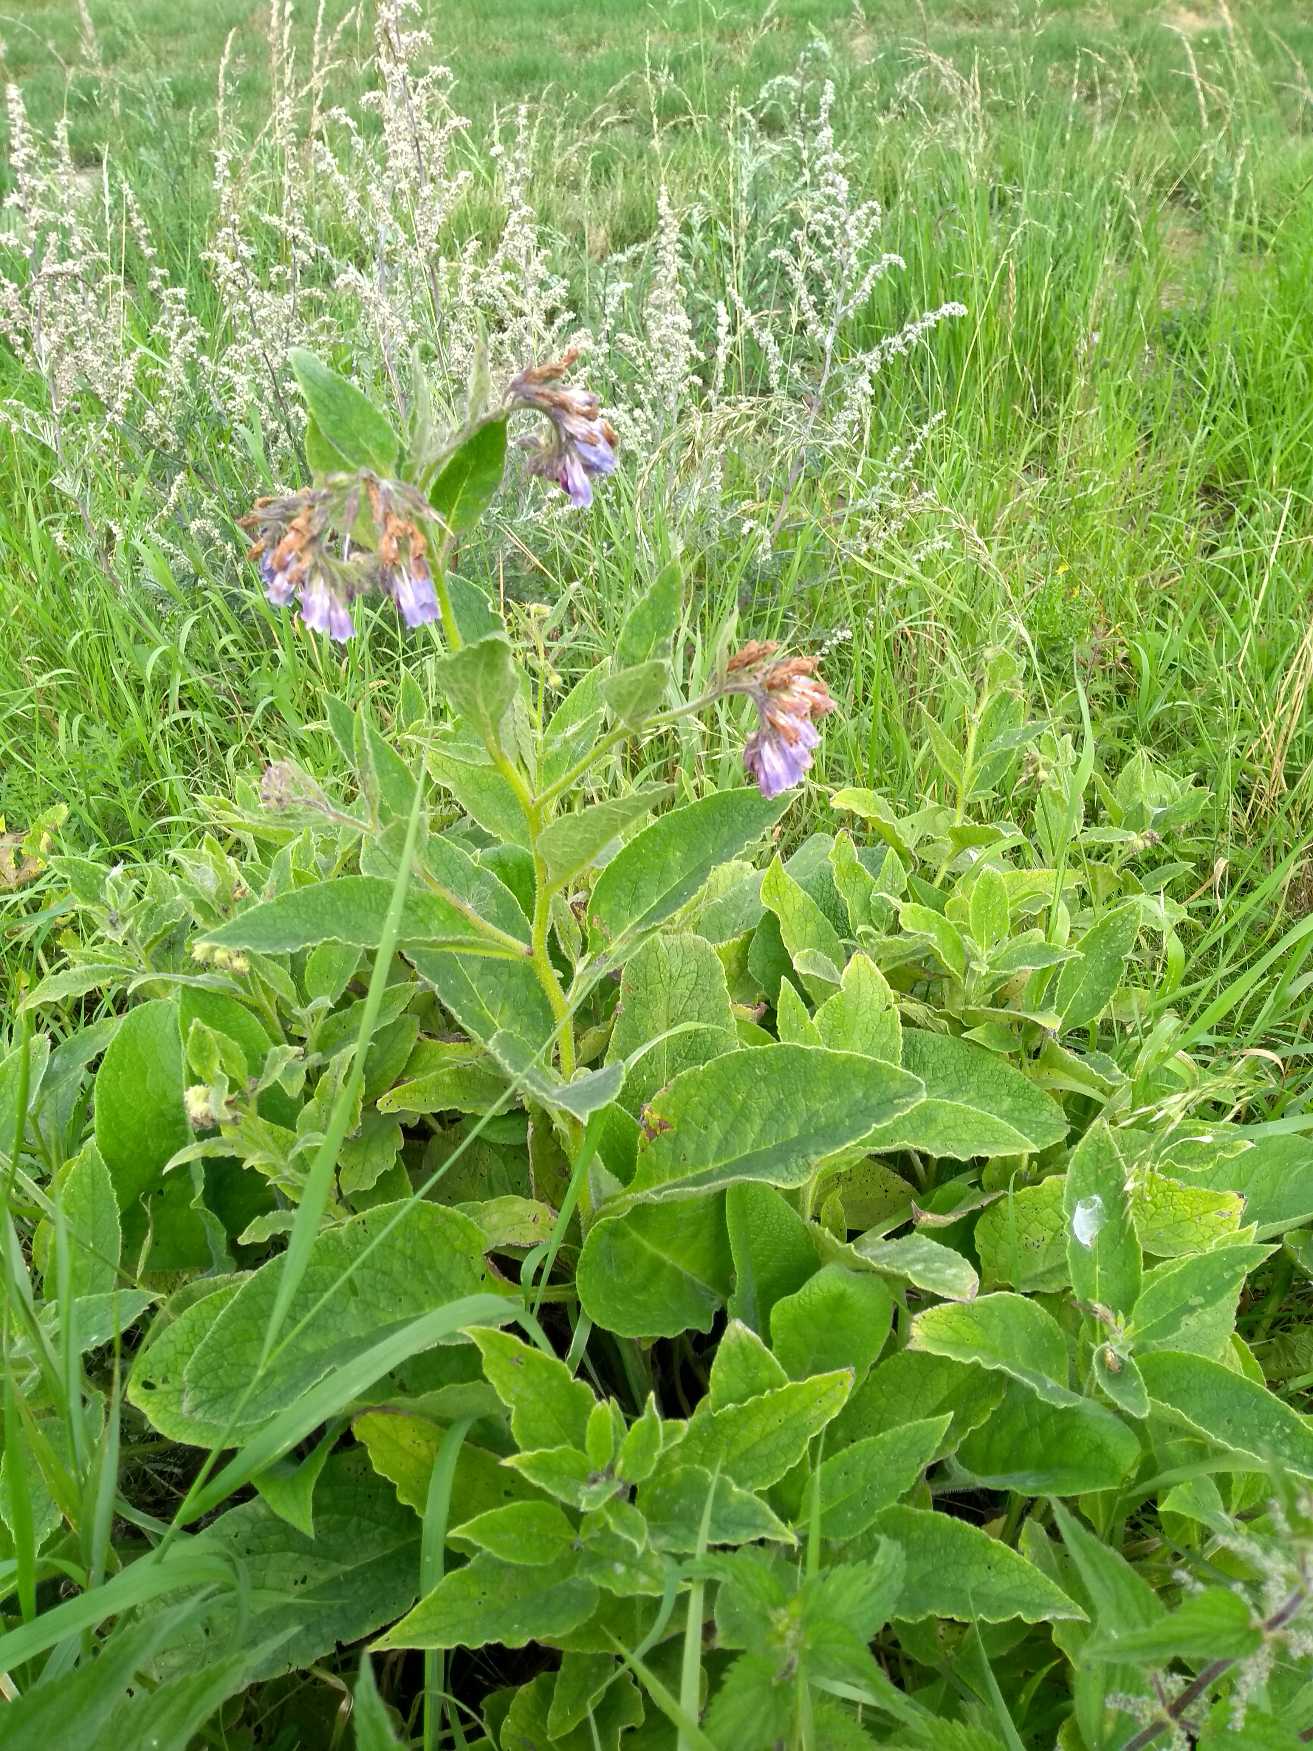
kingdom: Plantae
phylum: Tracheophyta
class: Magnoliopsida
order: Boraginales
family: Boraginaceae
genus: Symphytum
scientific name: Symphytum uplandicum
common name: Foder-kulsukker
